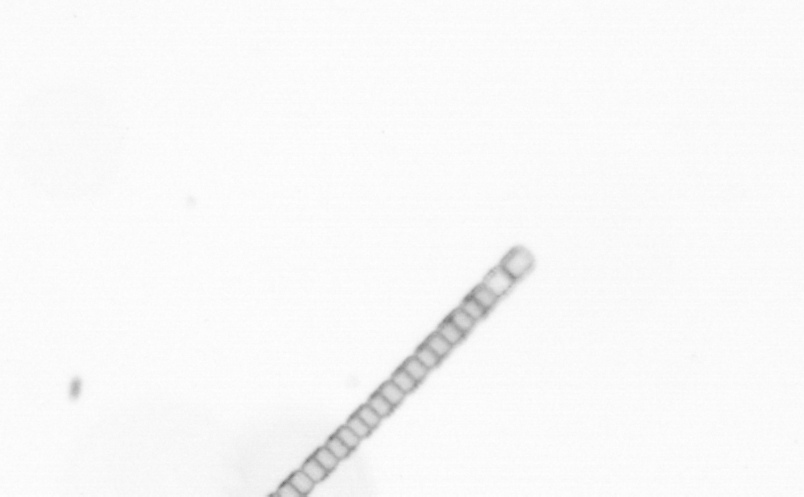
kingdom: Chromista
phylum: Ochrophyta
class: Bacillariophyceae
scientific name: Bacillariophyceae
